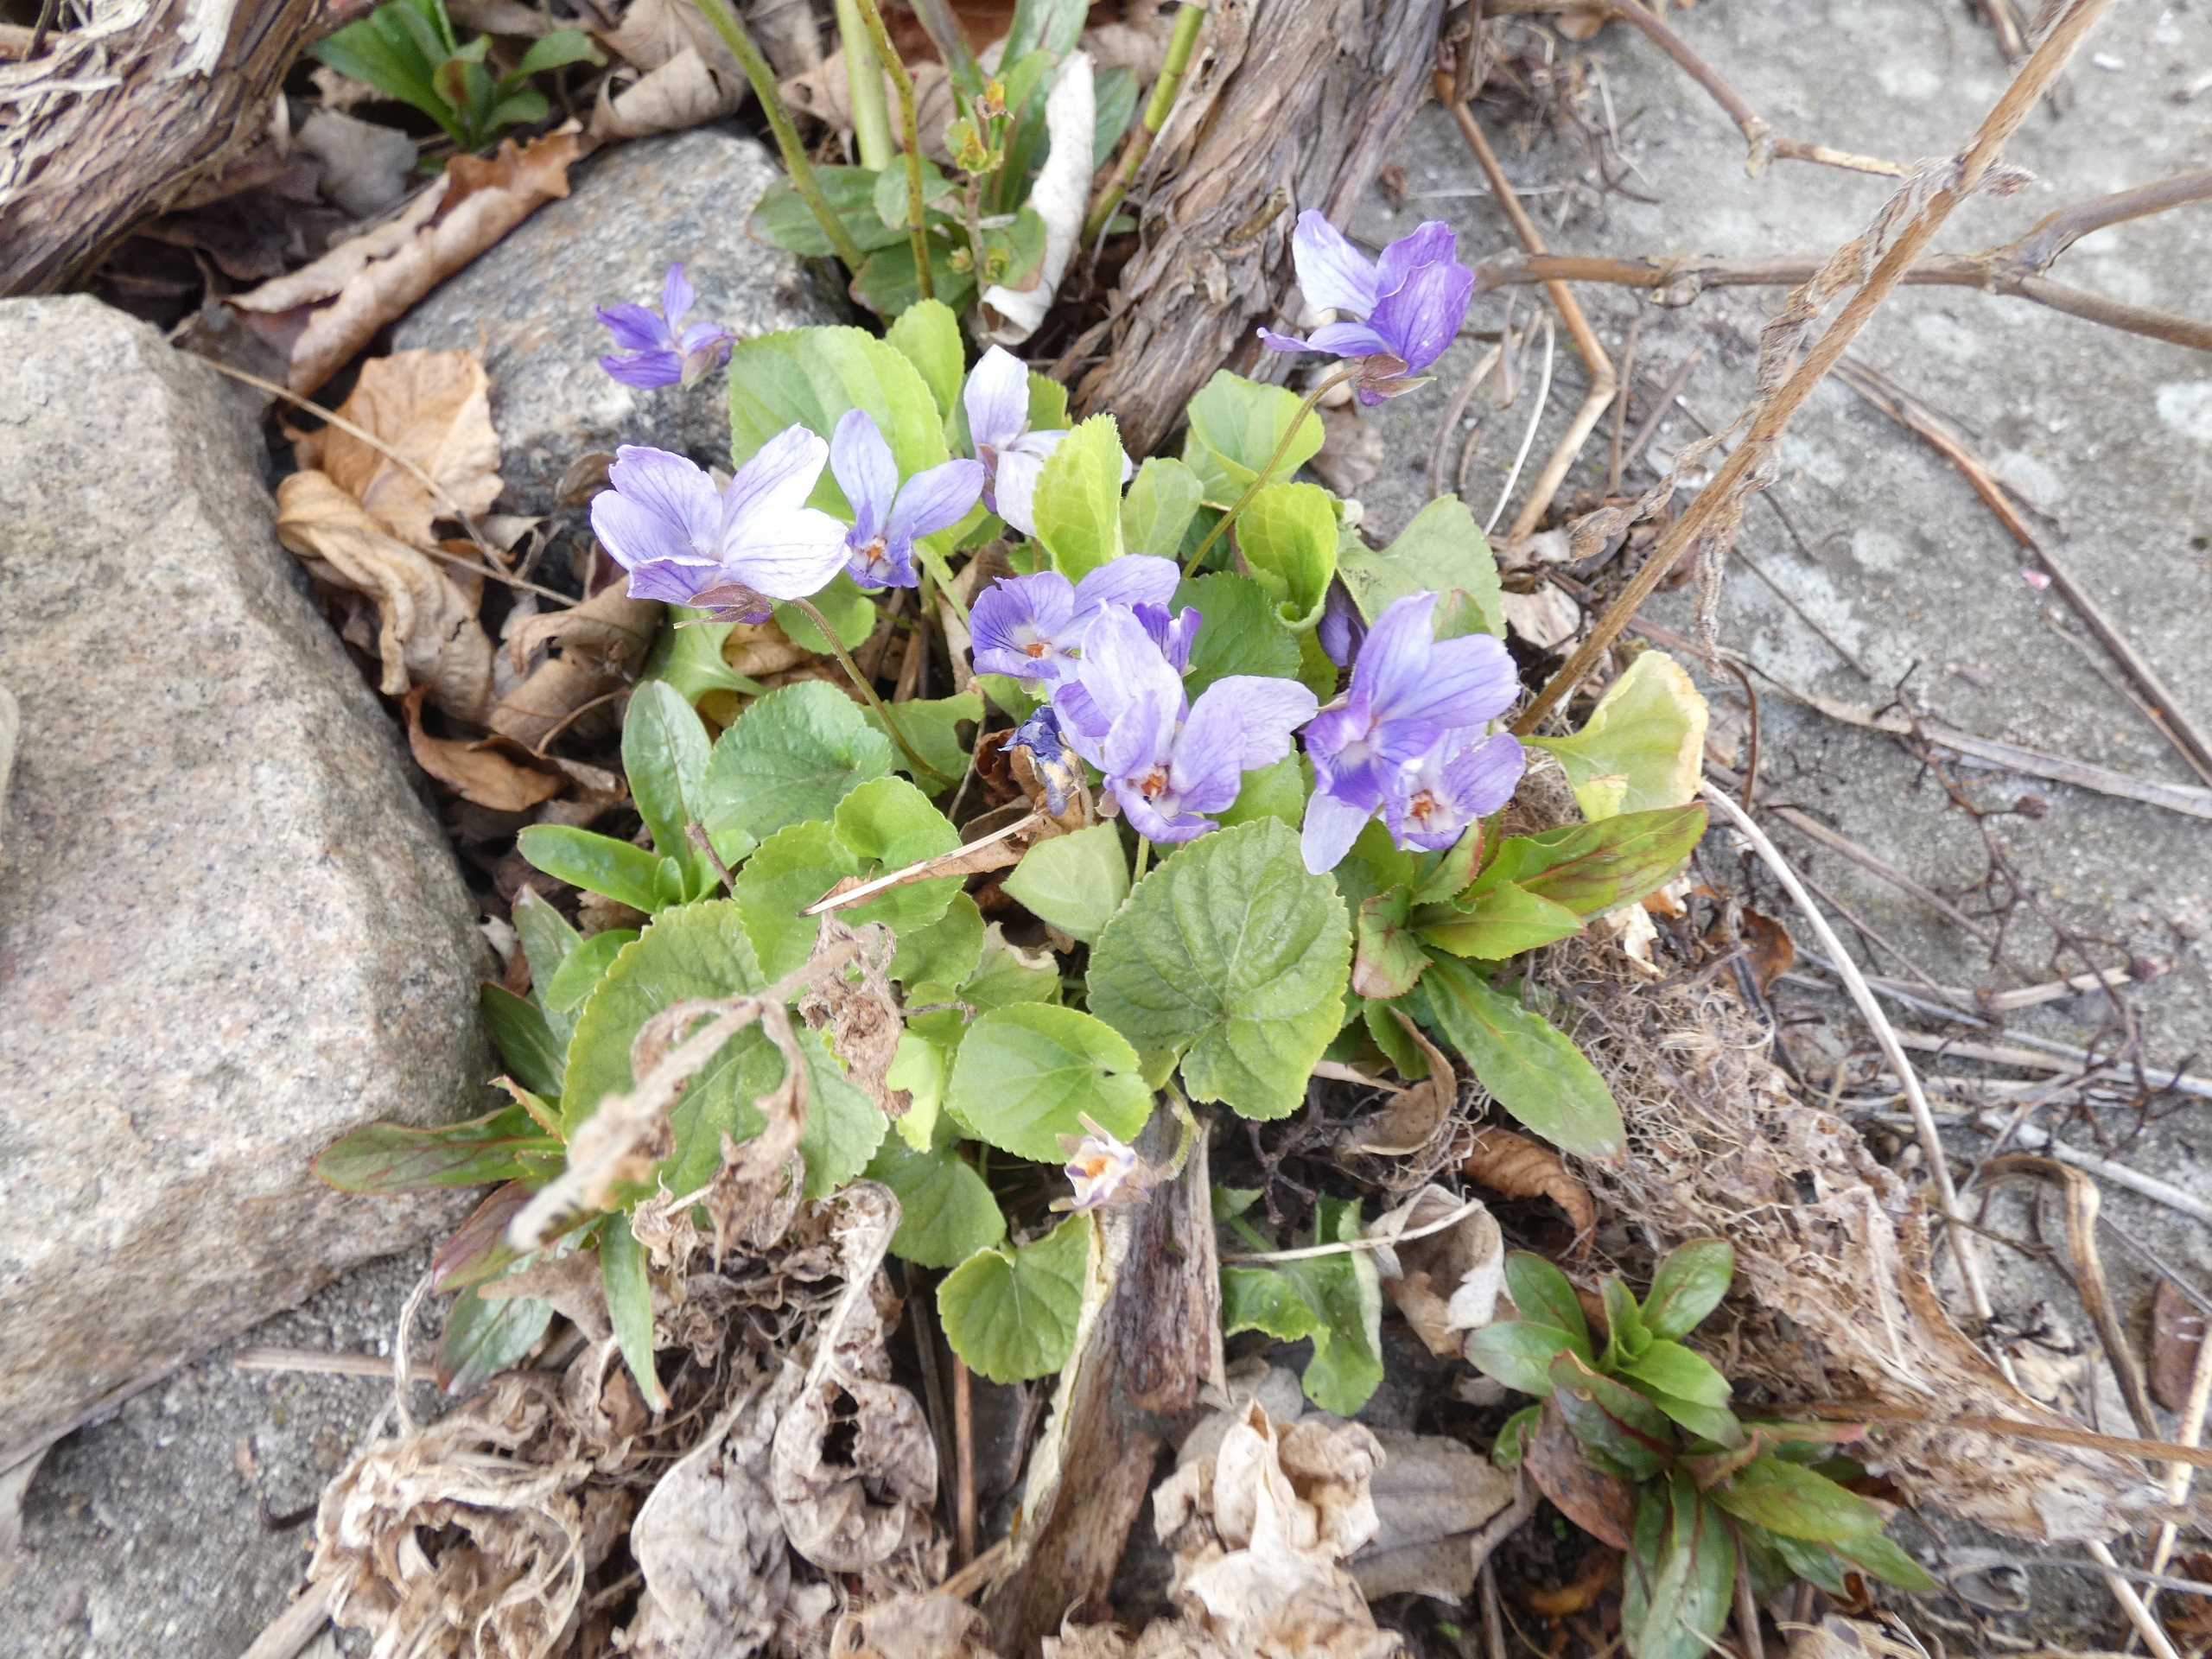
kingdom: Plantae
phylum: Tracheophyta
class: Magnoliopsida
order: Malpighiales
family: Violaceae
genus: Viola
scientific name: Viola odorata
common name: Marts-viol
